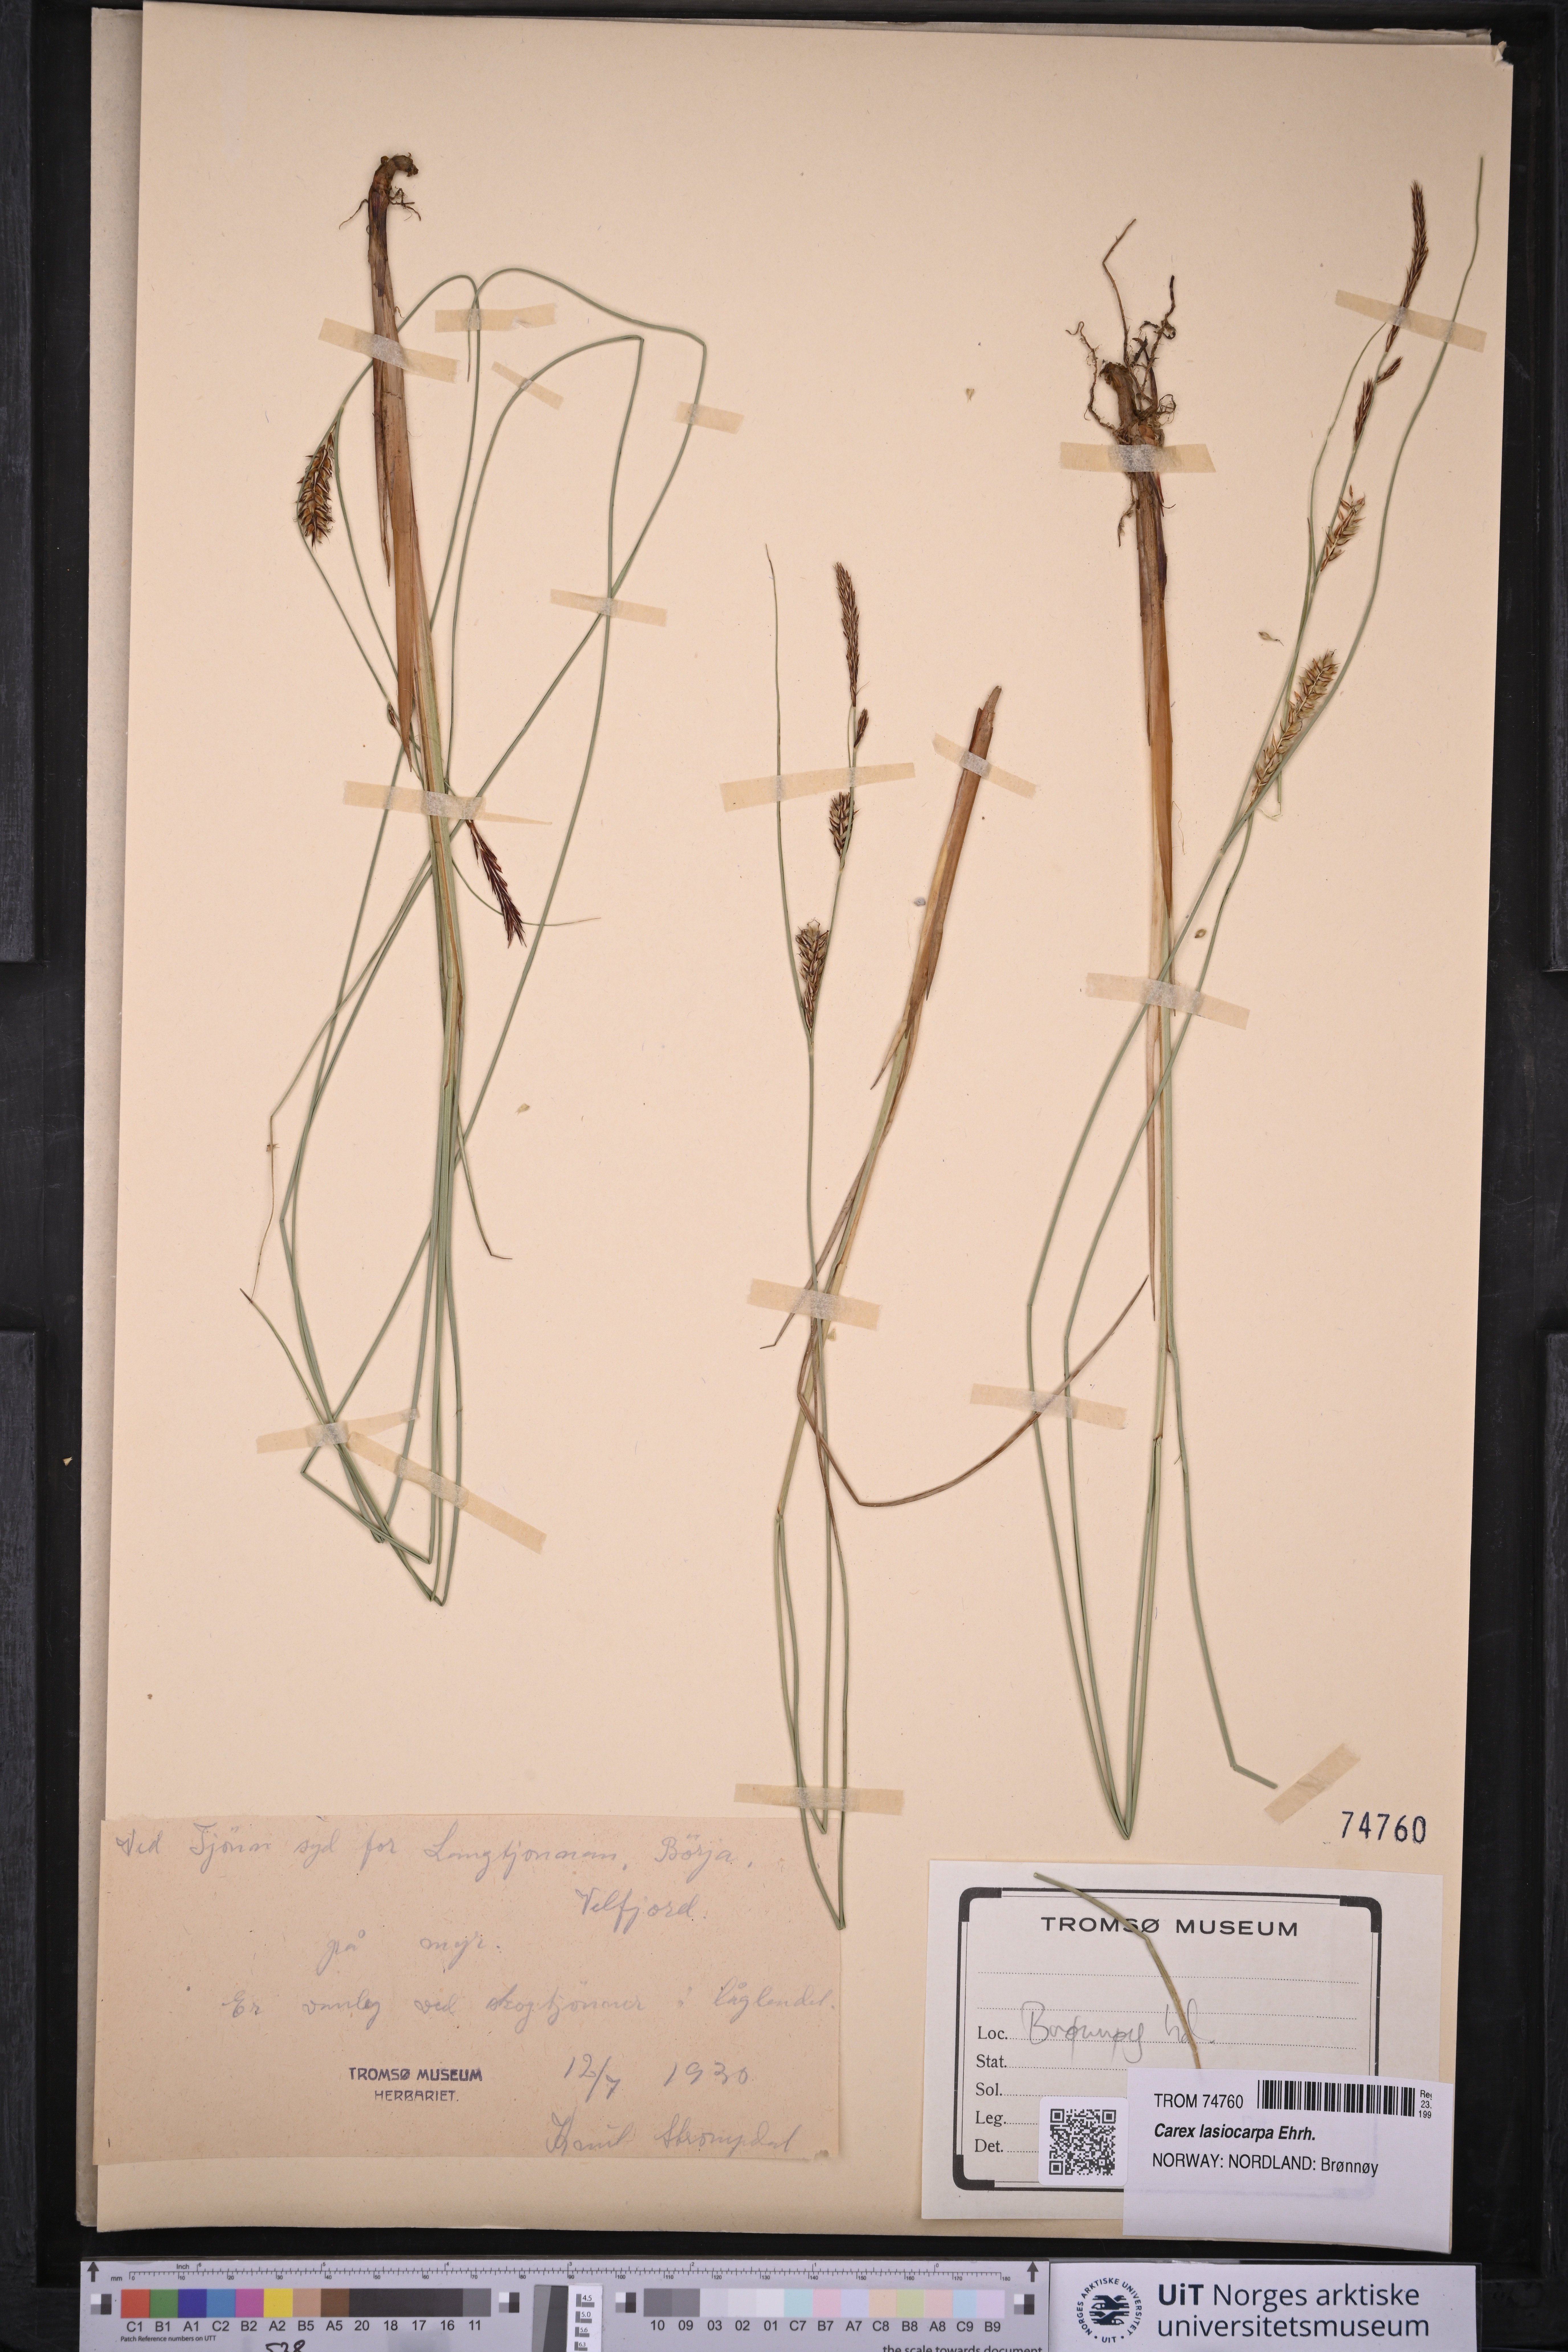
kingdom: Plantae
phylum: Tracheophyta
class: Liliopsida
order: Poales
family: Cyperaceae
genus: Carex
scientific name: Carex lasiocarpa
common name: Slender sedge
